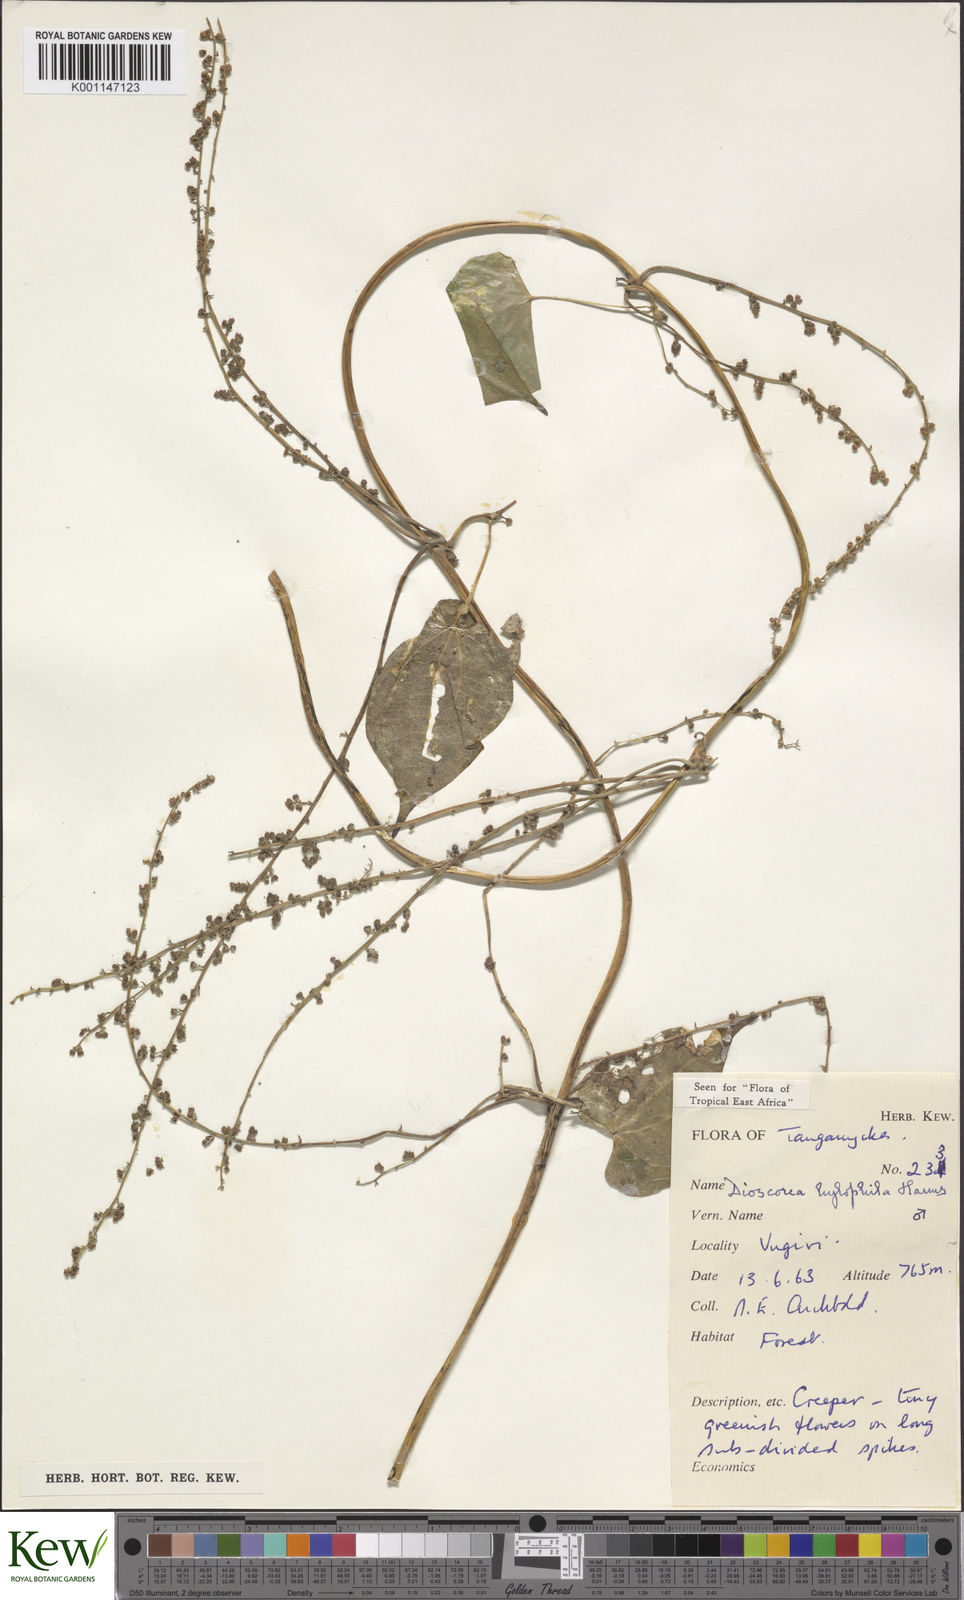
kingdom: Plantae
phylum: Tracheophyta
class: Liliopsida
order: Dioscoreales
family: Dioscoreaceae
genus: Dioscorea
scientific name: Dioscorea
